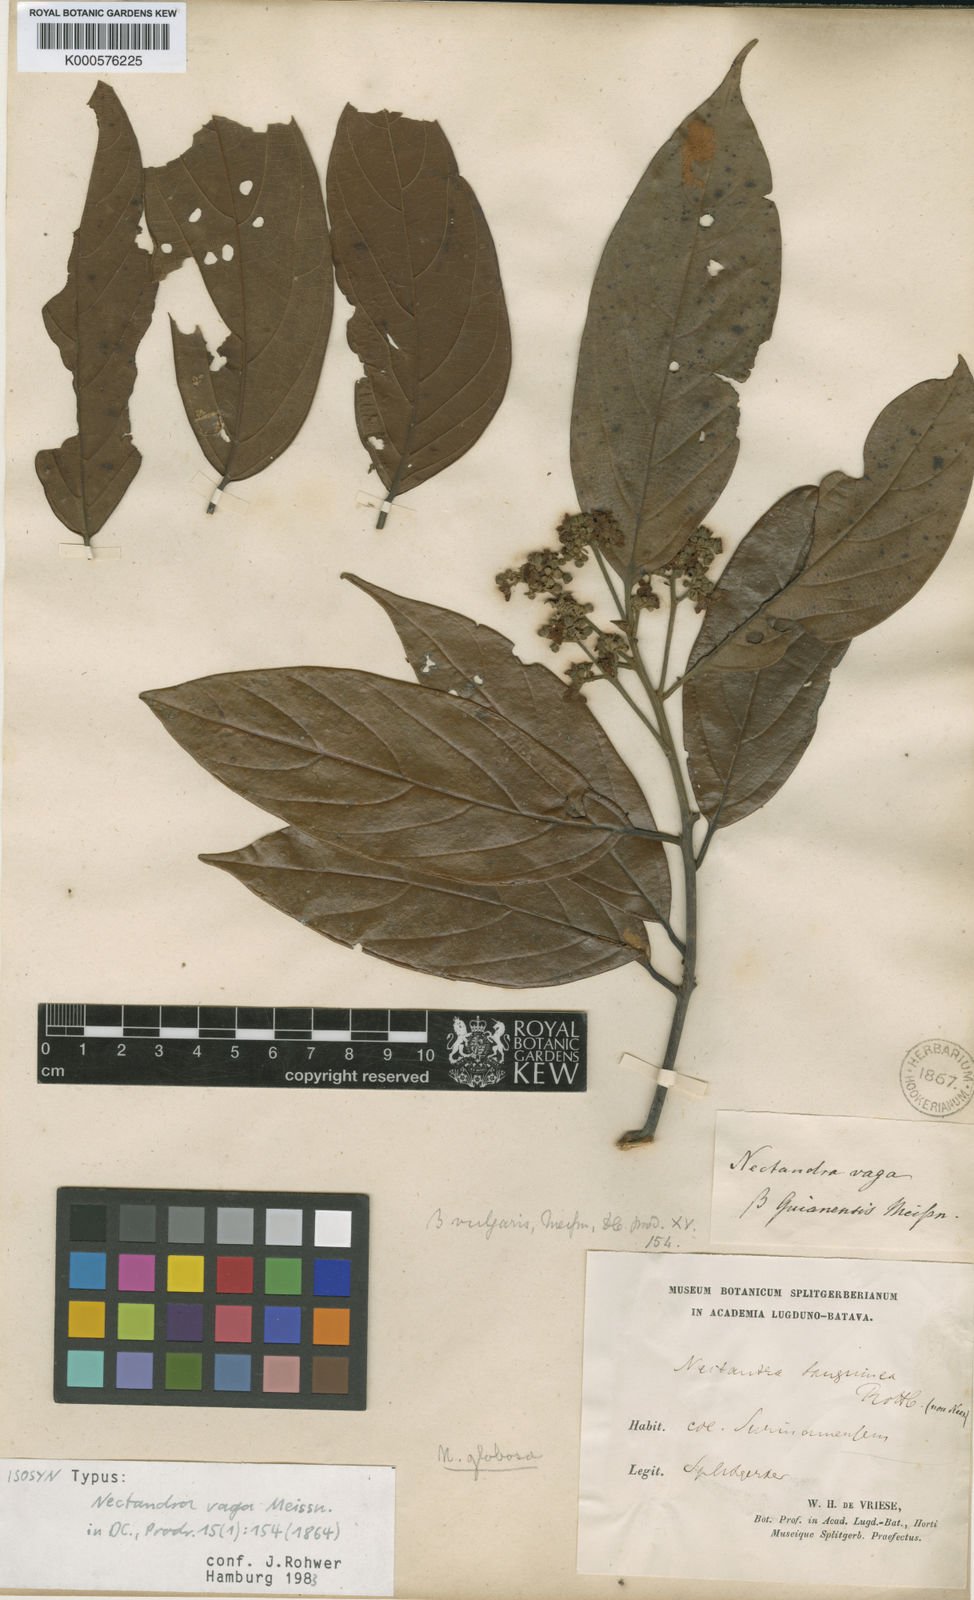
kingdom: Plantae
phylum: Tracheophyta
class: Magnoliopsida
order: Laurales
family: Lauraceae
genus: Nectandra
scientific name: Nectandra globosa
